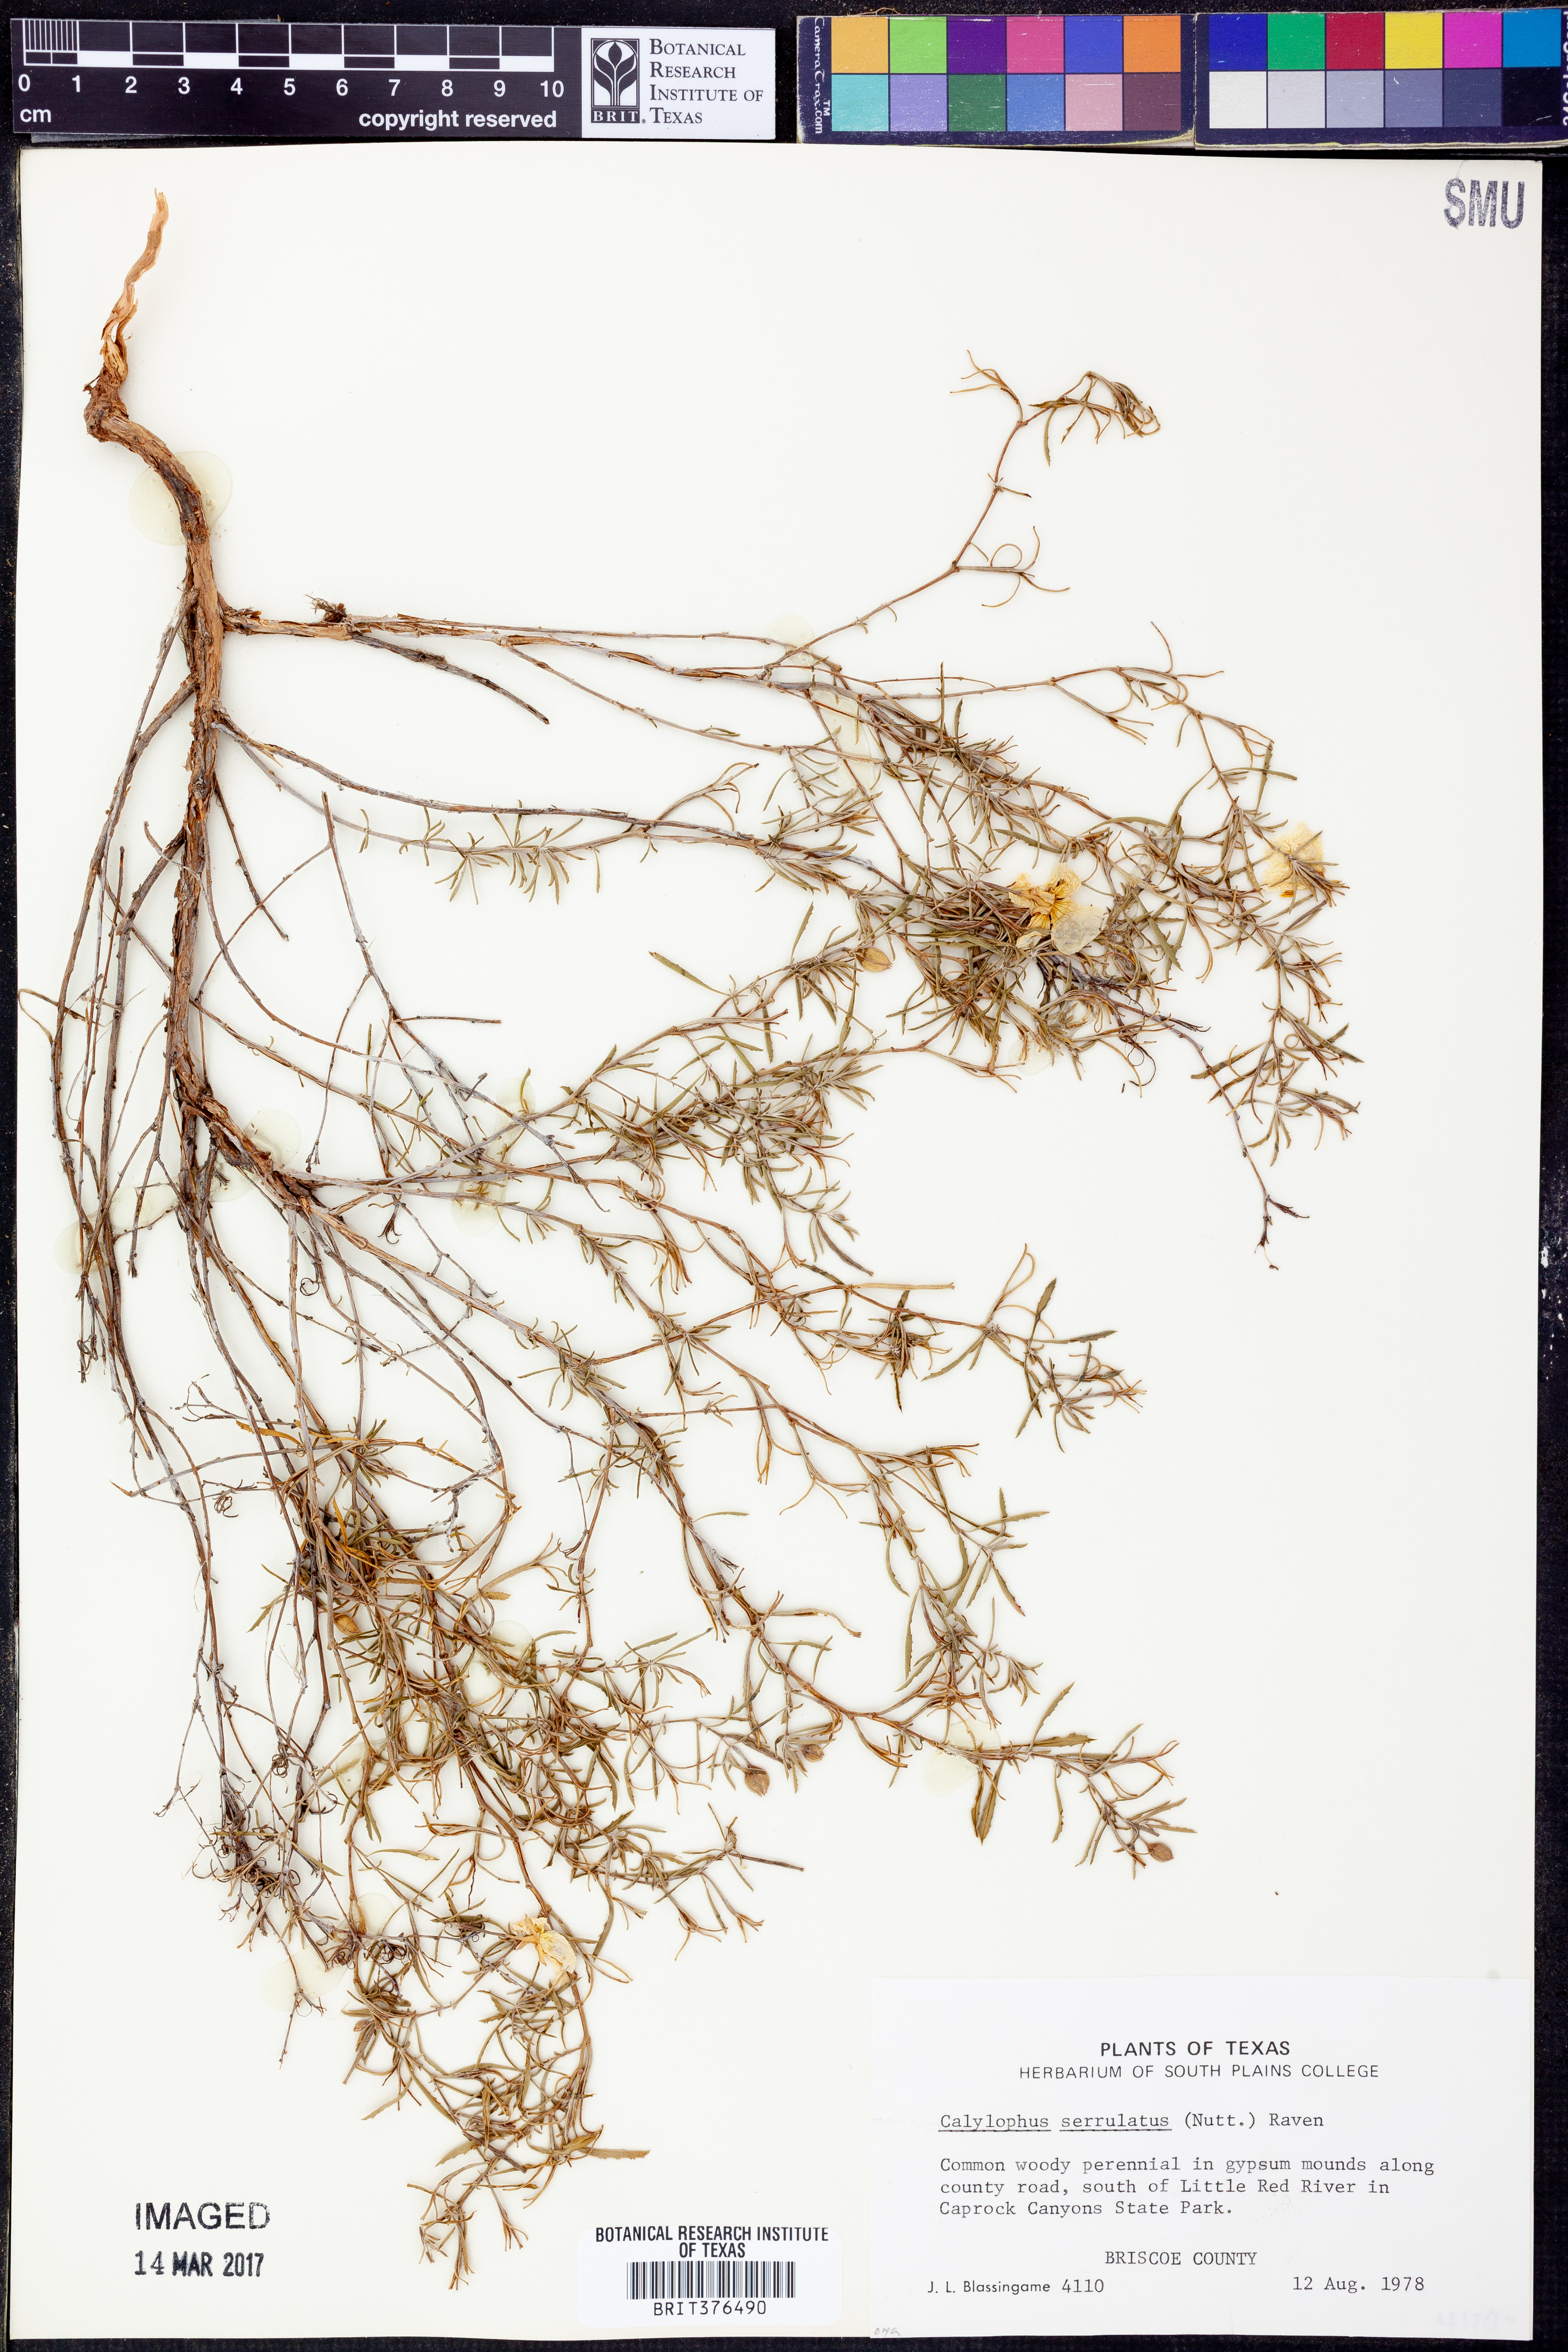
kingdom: Plantae
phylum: Tracheophyta
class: Magnoliopsida
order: Myrtales
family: Onagraceae
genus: Oenothera
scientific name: Oenothera serrulata
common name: Half-shrub calylophus
